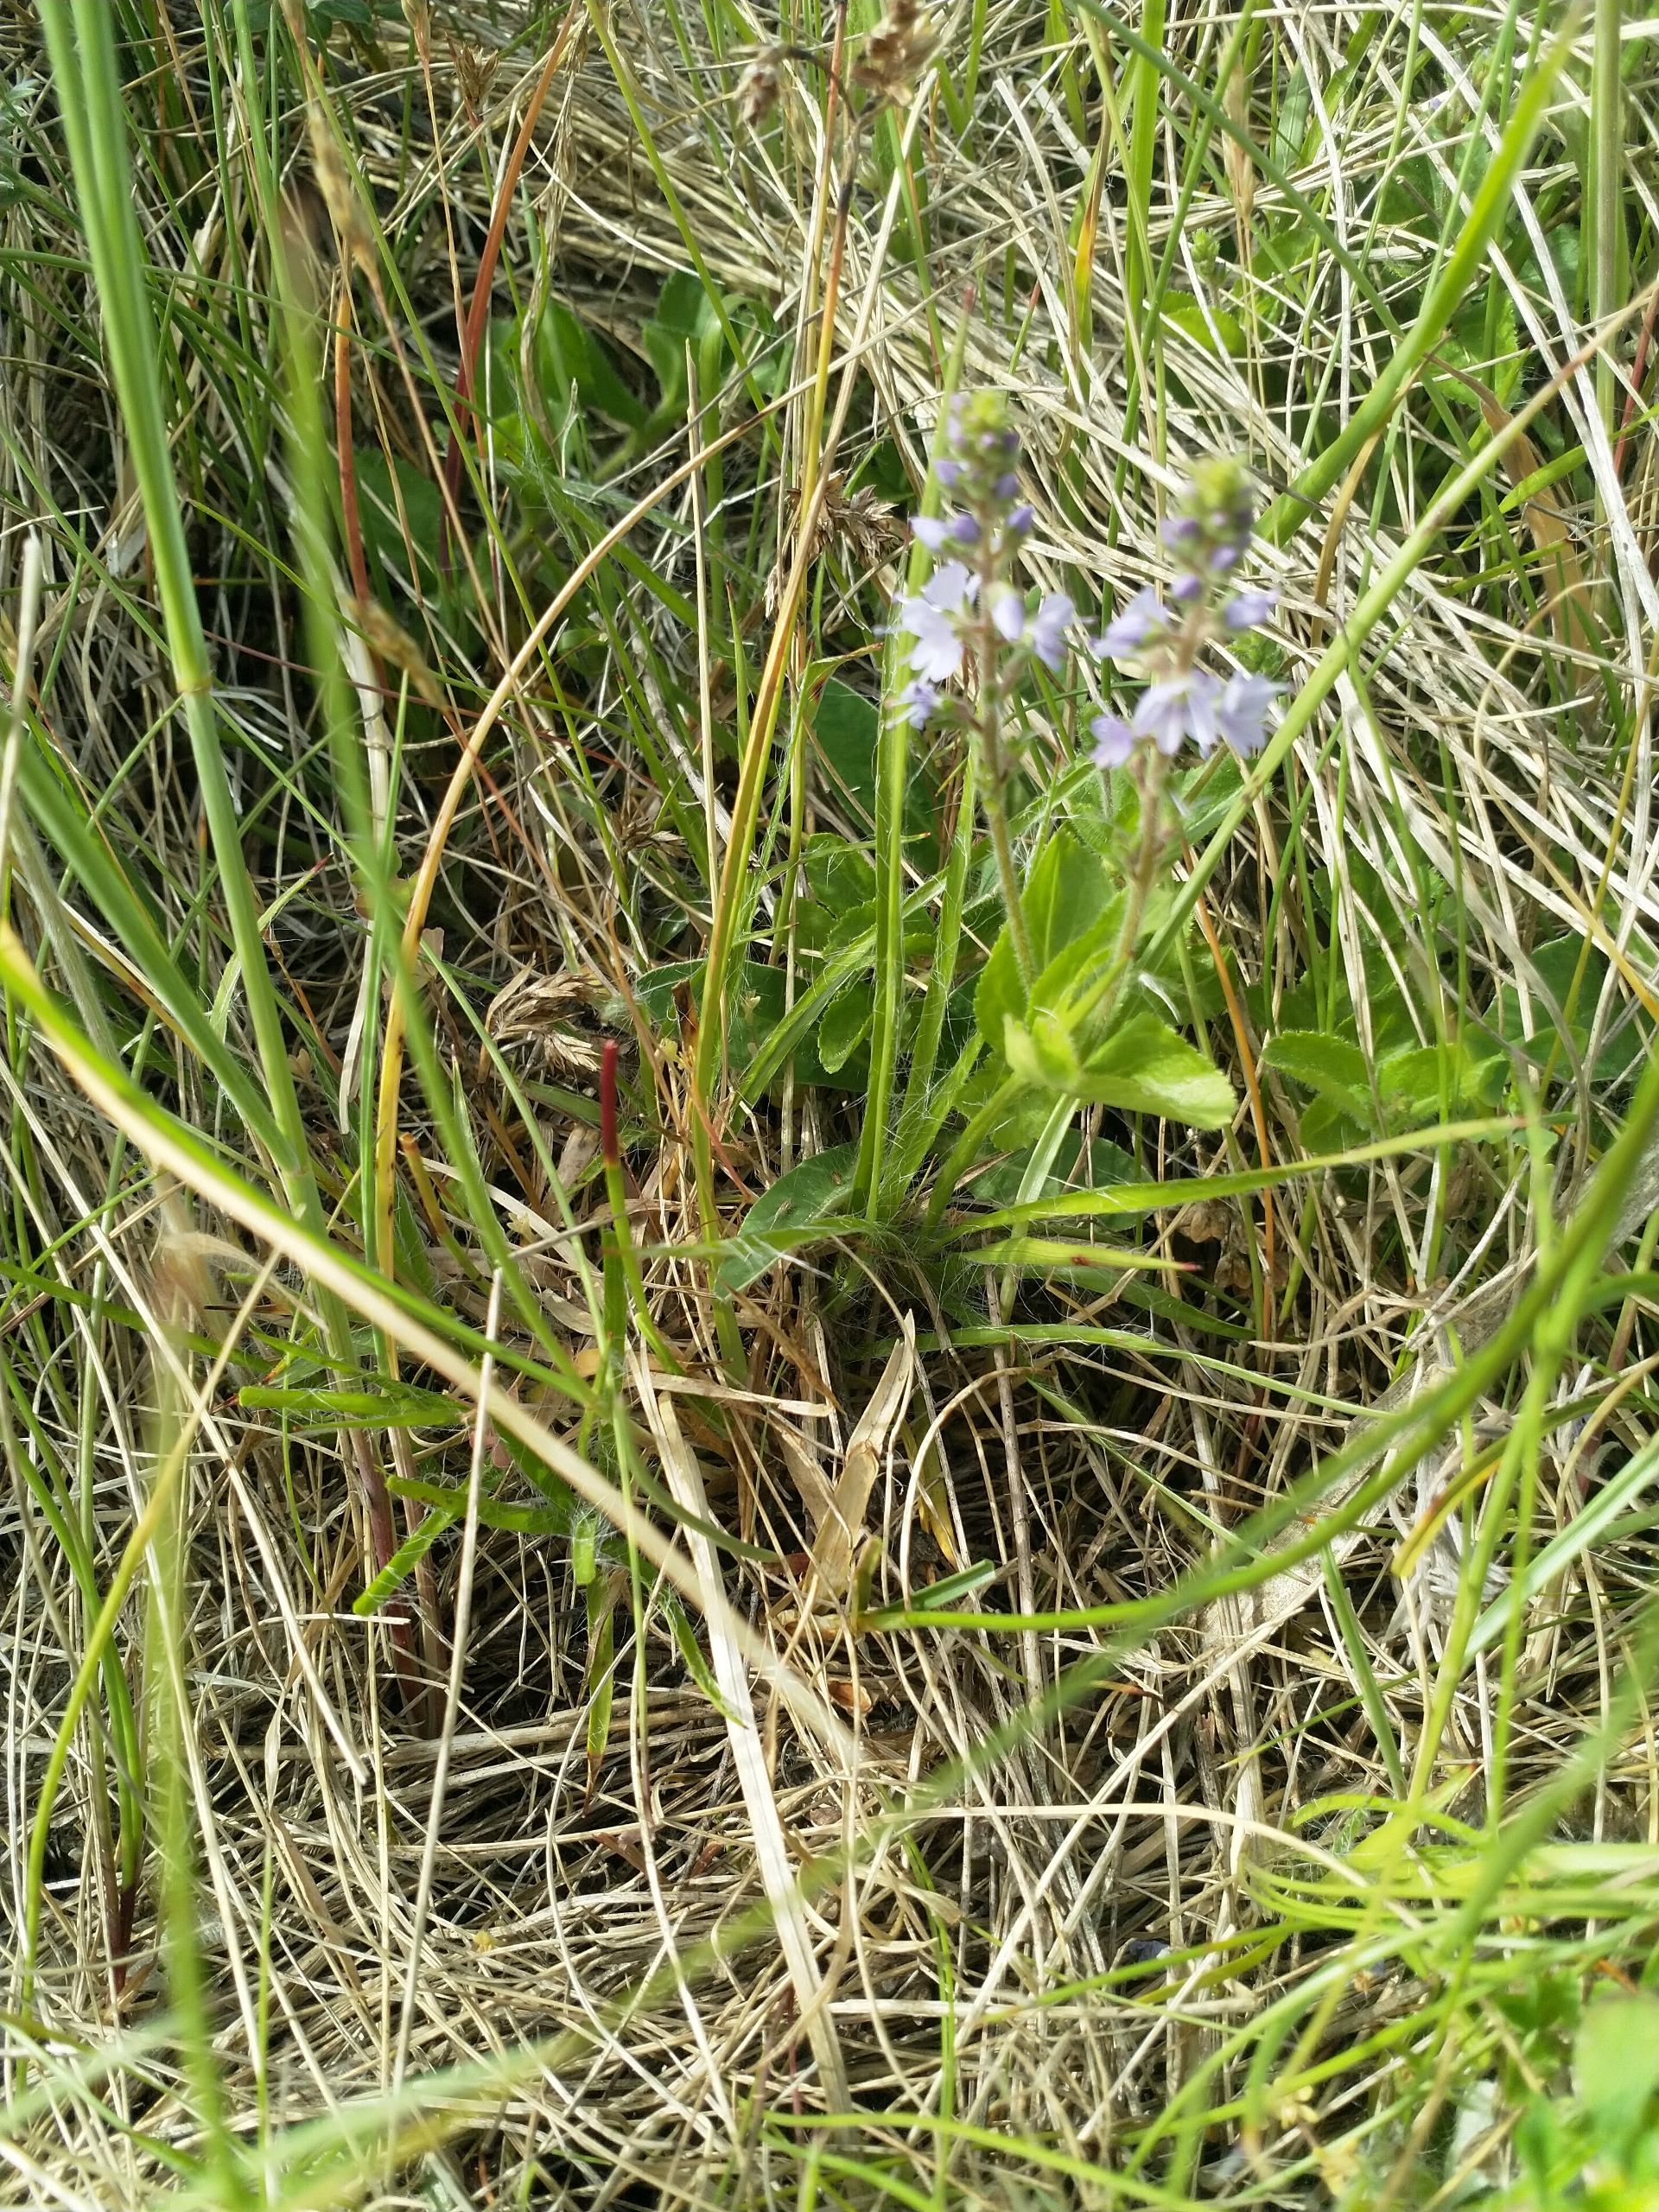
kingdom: Plantae
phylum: Tracheophyta
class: Magnoliopsida
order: Lamiales
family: Plantaginaceae
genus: Veronica
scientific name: Veronica officinalis
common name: Læge-ærenpris
